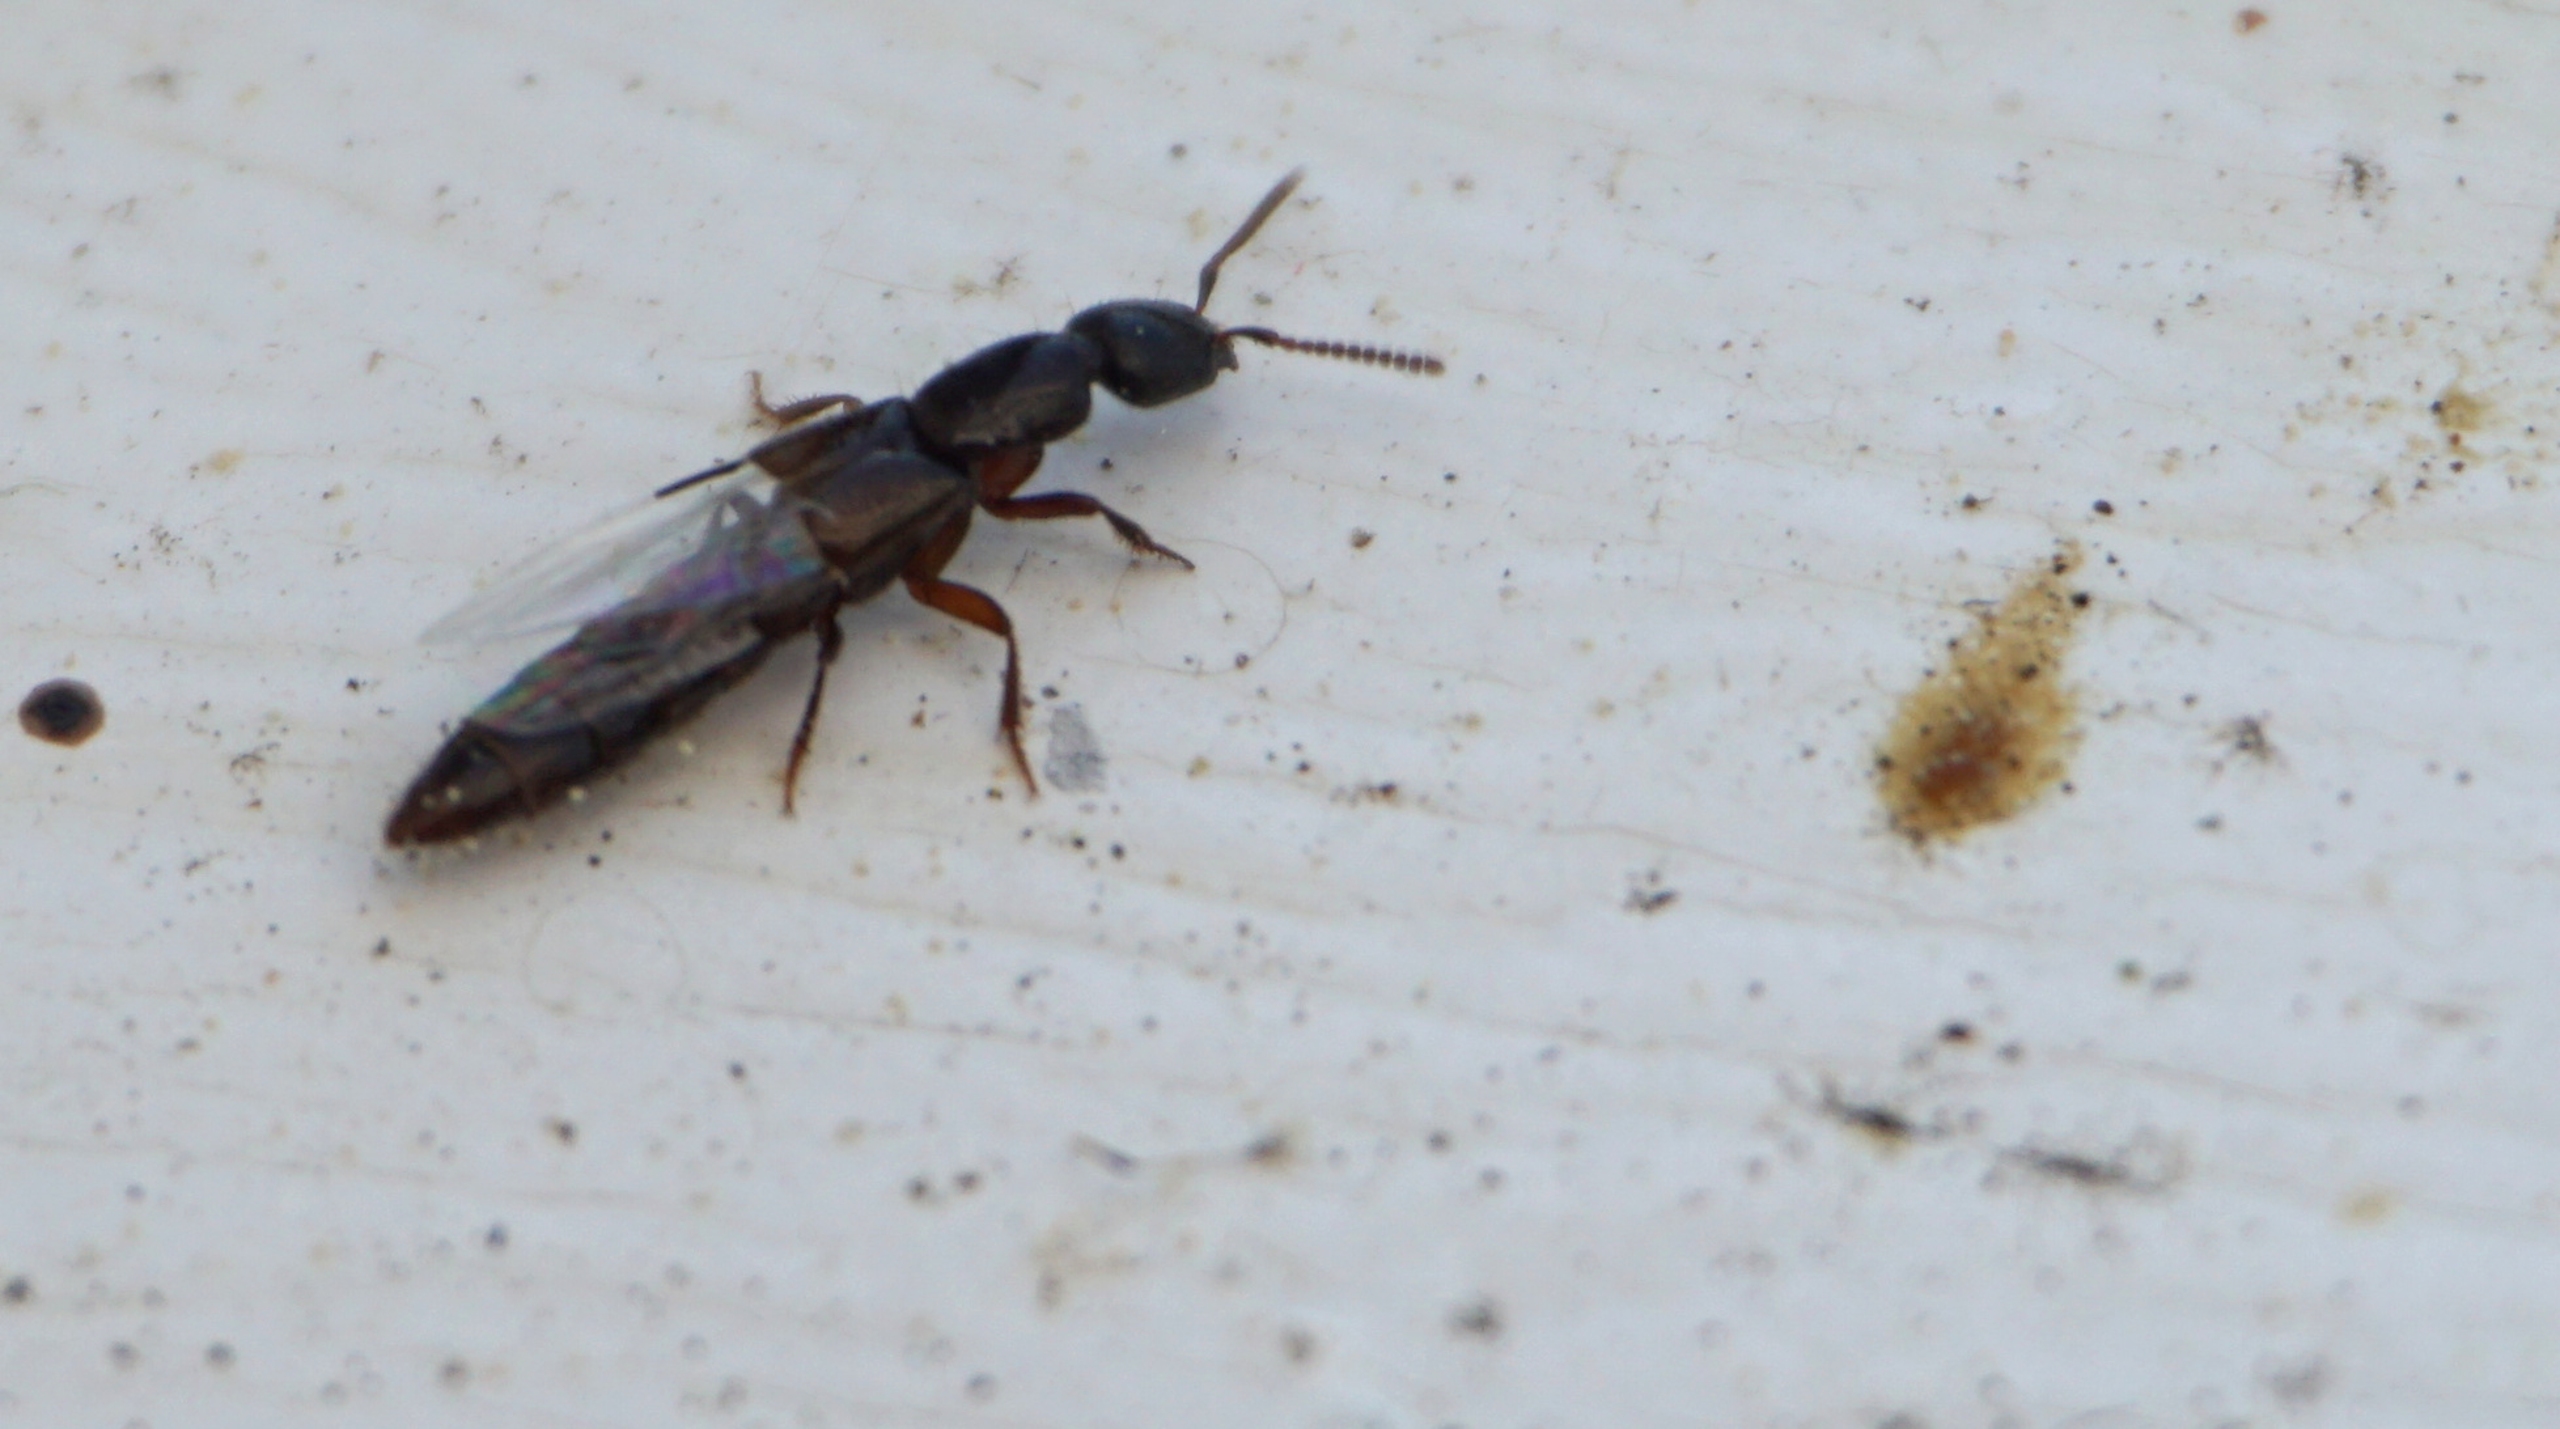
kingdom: Animalia
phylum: Arthropoda
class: Insecta
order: Coleoptera
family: Staphylinidae
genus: Xantholinus
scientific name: Xantholinus
